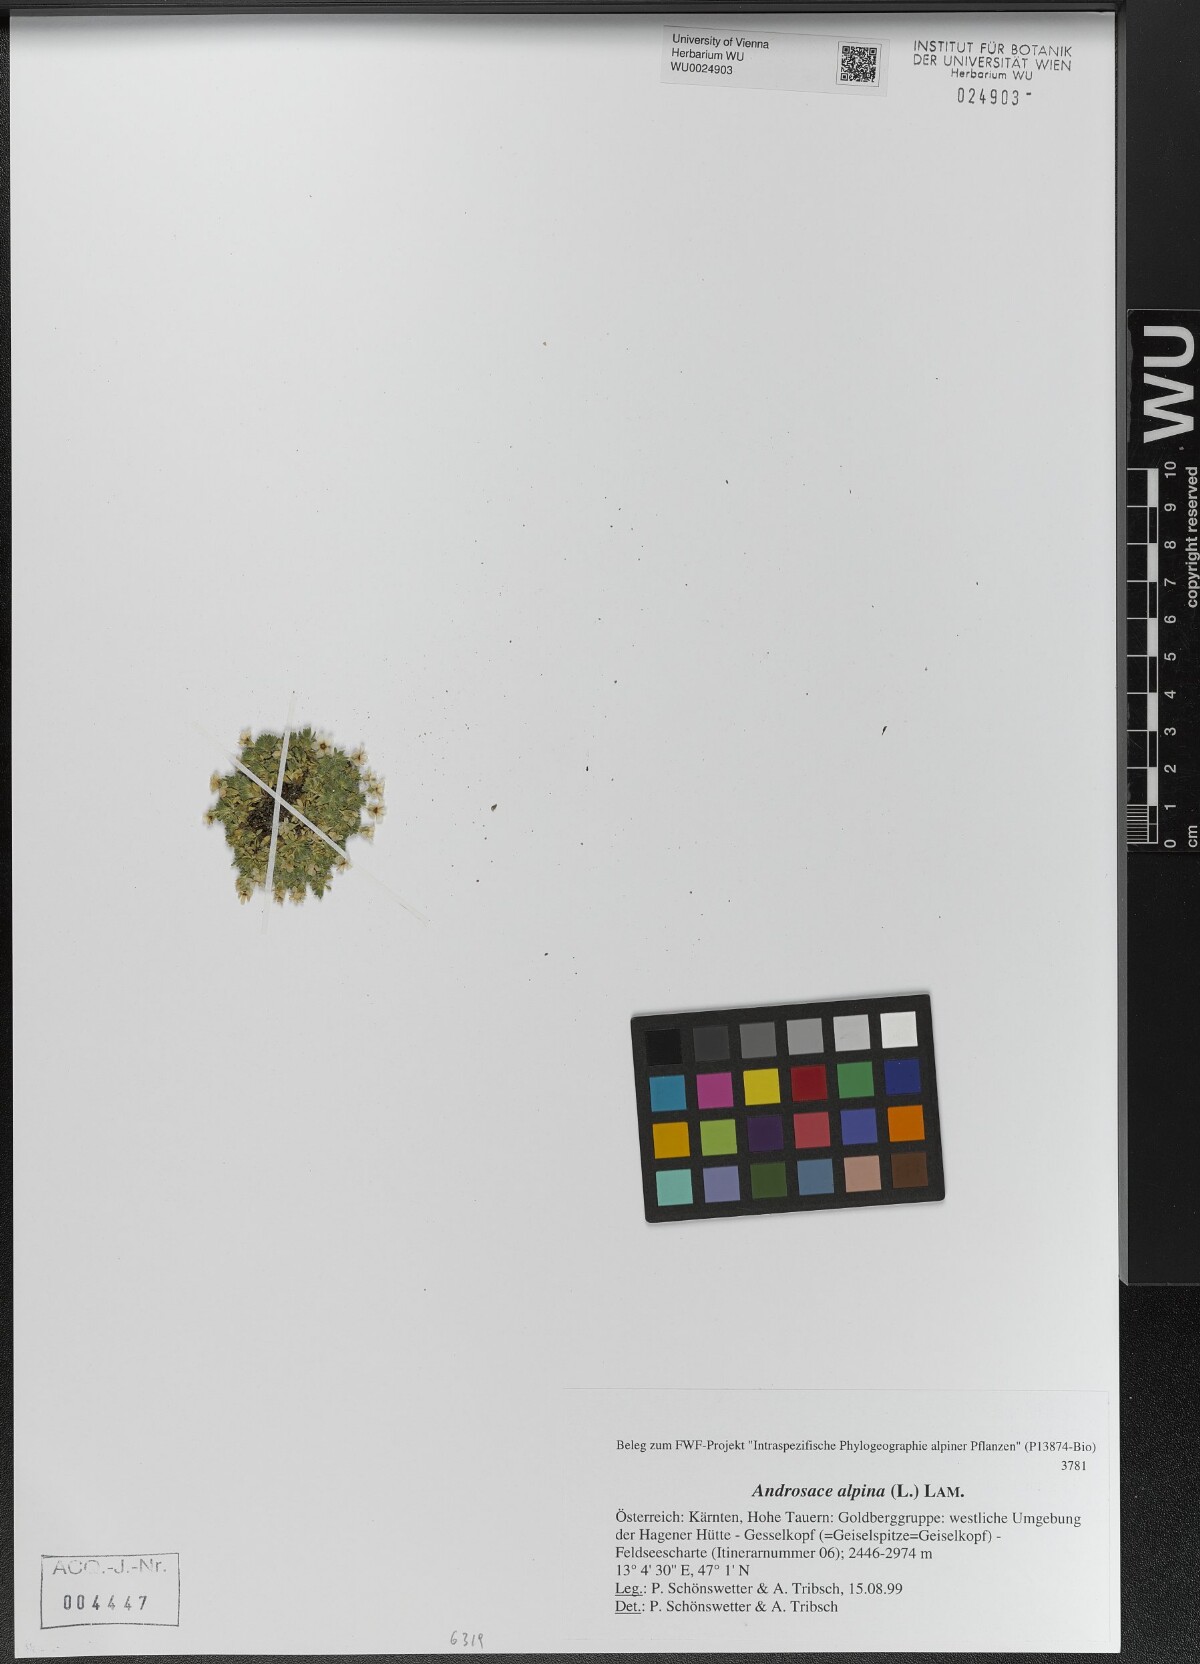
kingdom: Plantae
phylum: Tracheophyta
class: Magnoliopsida
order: Ericales
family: Primulaceae
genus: Androsace
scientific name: Androsace alpina
